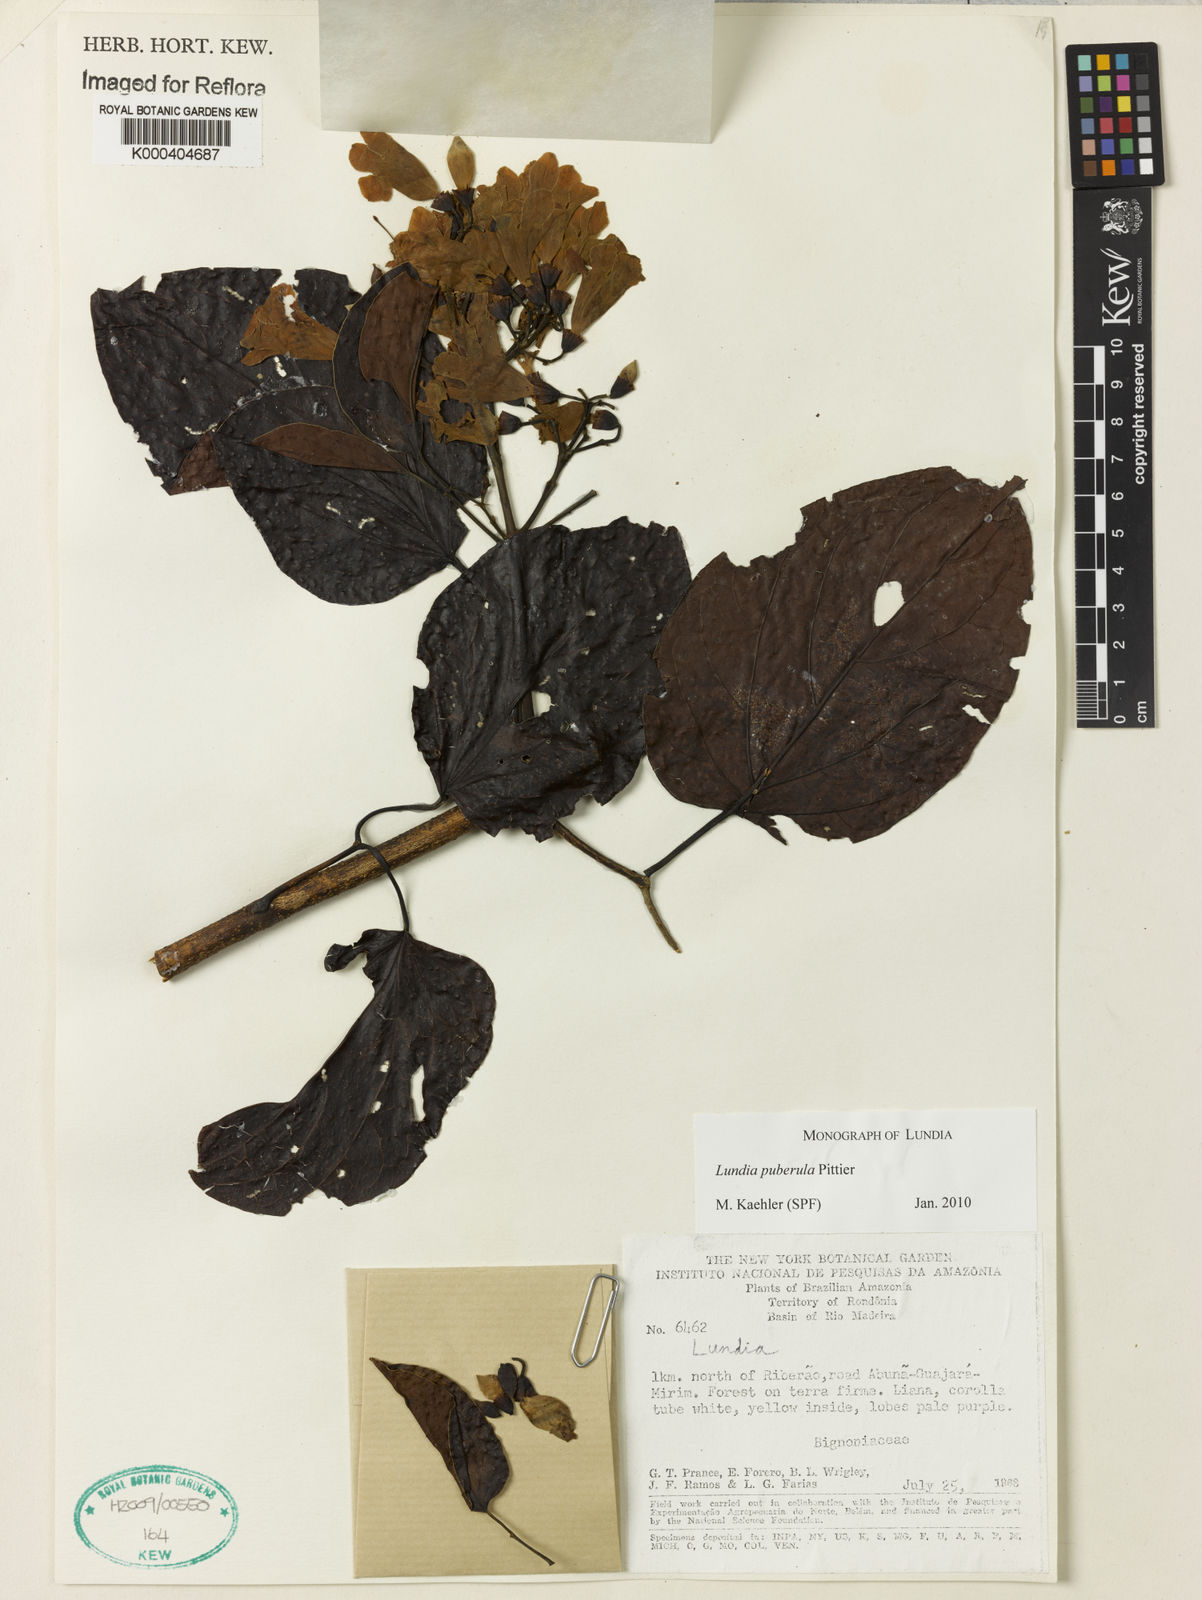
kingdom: Plantae
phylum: Tracheophyta
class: Magnoliopsida
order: Lamiales
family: Bignoniaceae
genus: Lundia
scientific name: Lundia puberula
